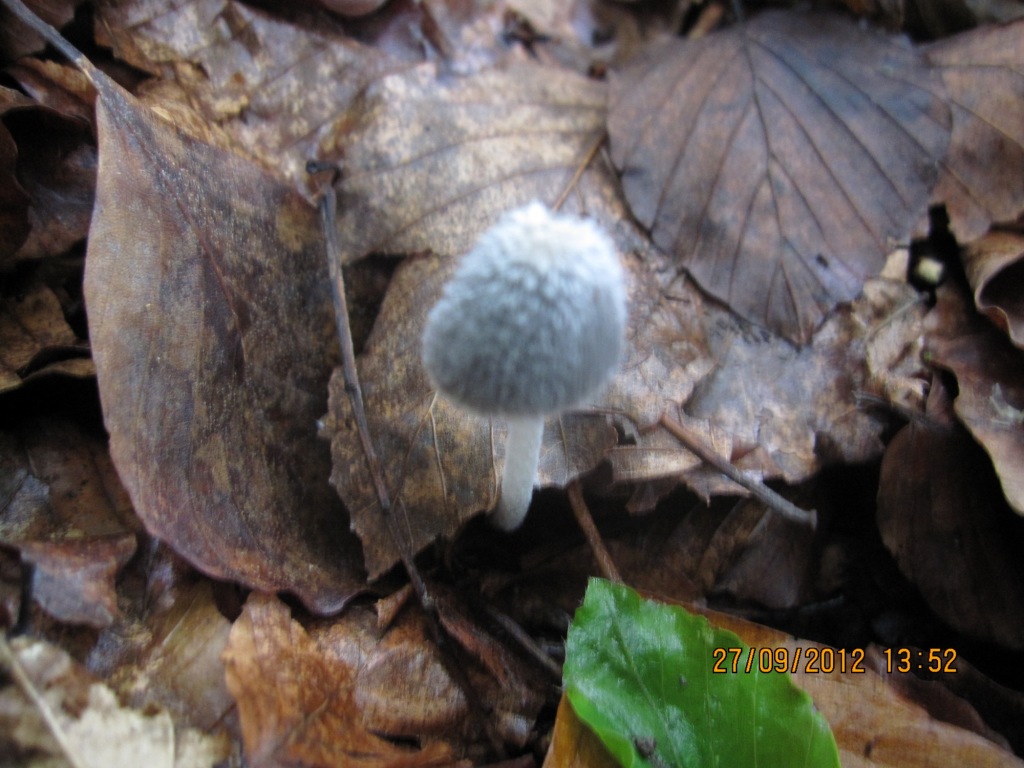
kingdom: Fungi
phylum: Basidiomycota
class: Agaricomycetes
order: Agaricales
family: Psathyrellaceae
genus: Coprinopsis
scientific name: Coprinopsis lagopus
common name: dunstokket blækhat
